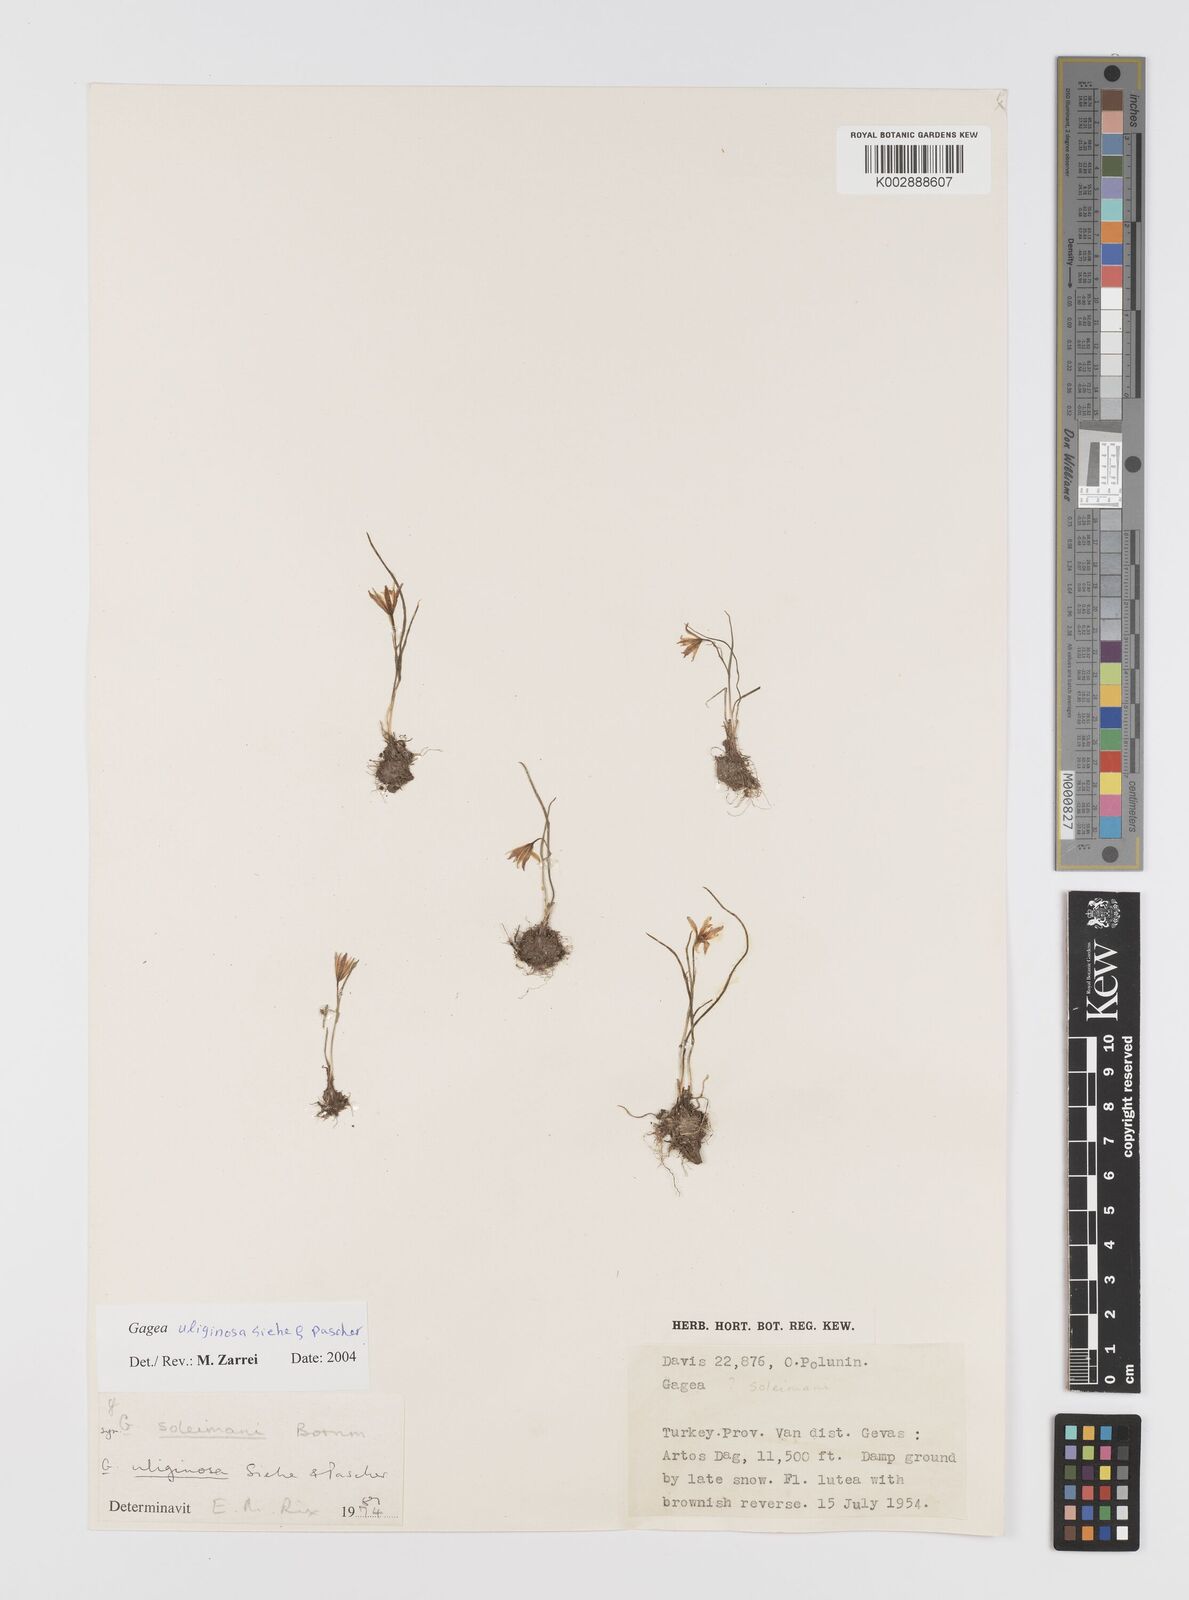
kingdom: Plantae
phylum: Tracheophyta
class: Liliopsida
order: Liliales
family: Liliaceae
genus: Gagea
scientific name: Gagea uliginosa
